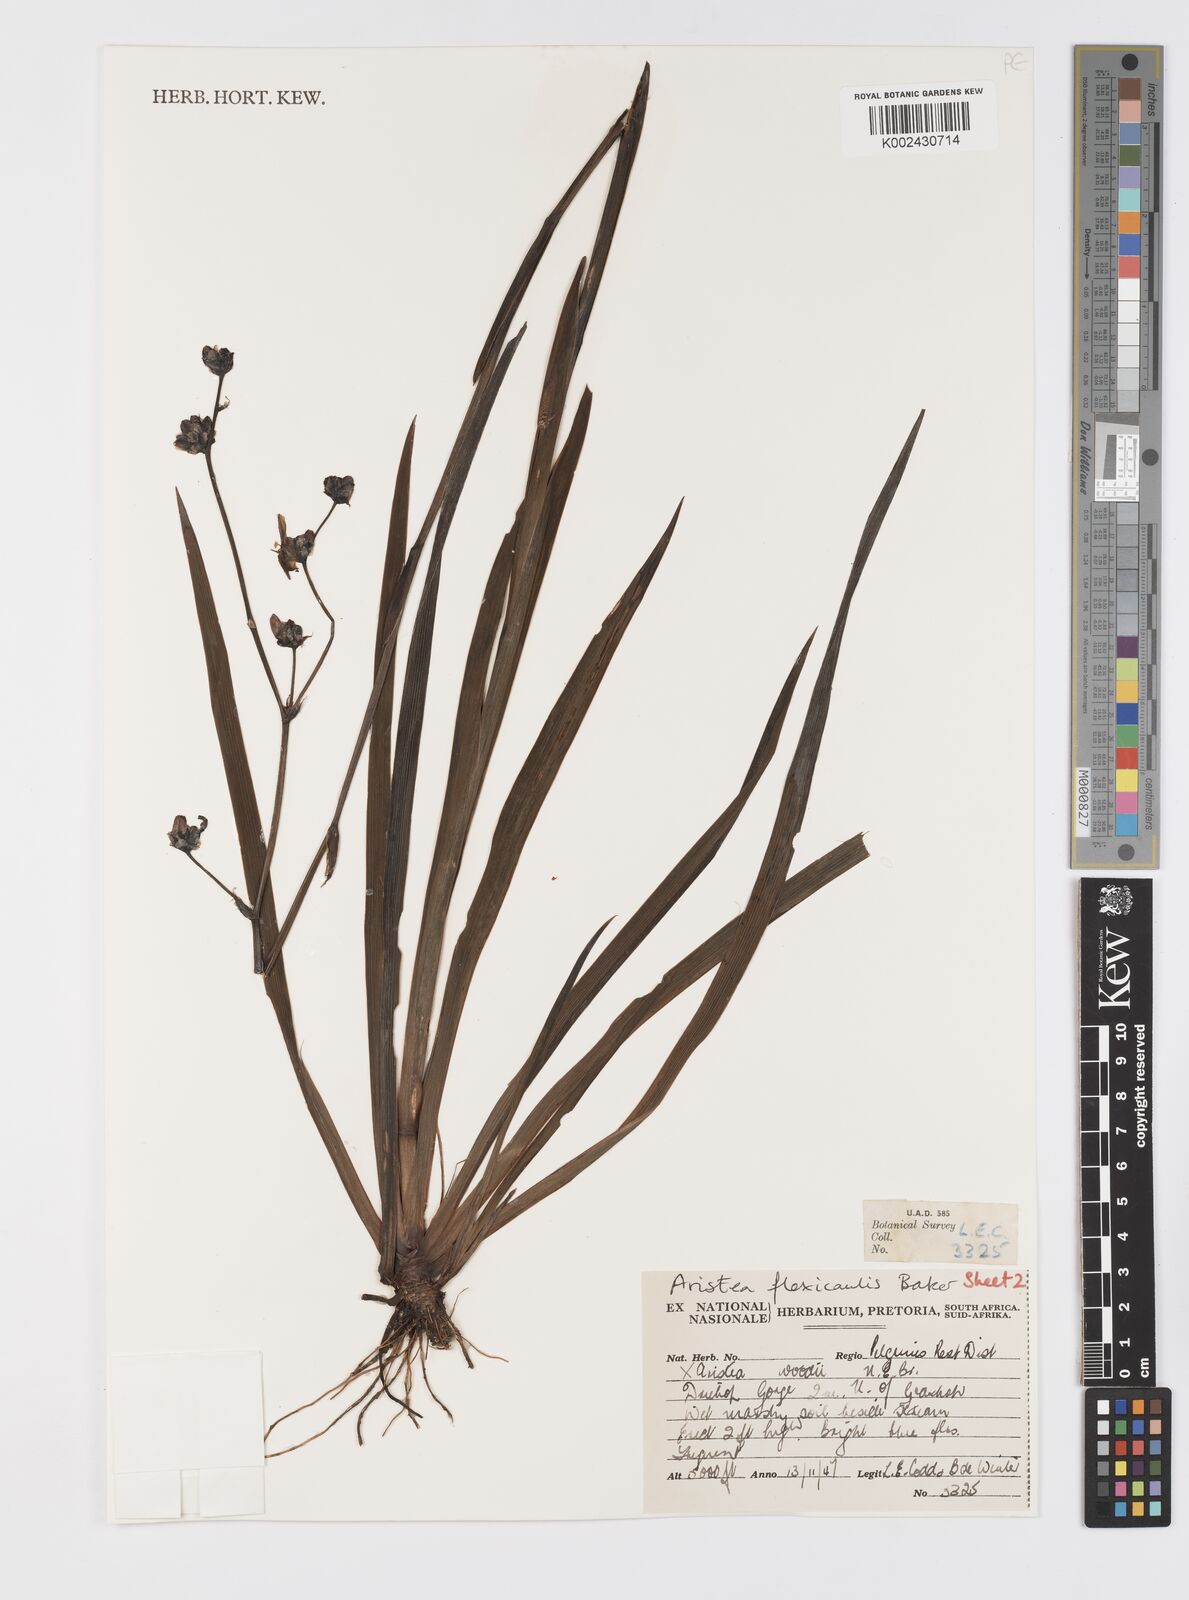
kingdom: Plantae
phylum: Tracheophyta
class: Liliopsida
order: Asparagales
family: Iridaceae
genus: Aristea
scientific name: Aristea angolensis
